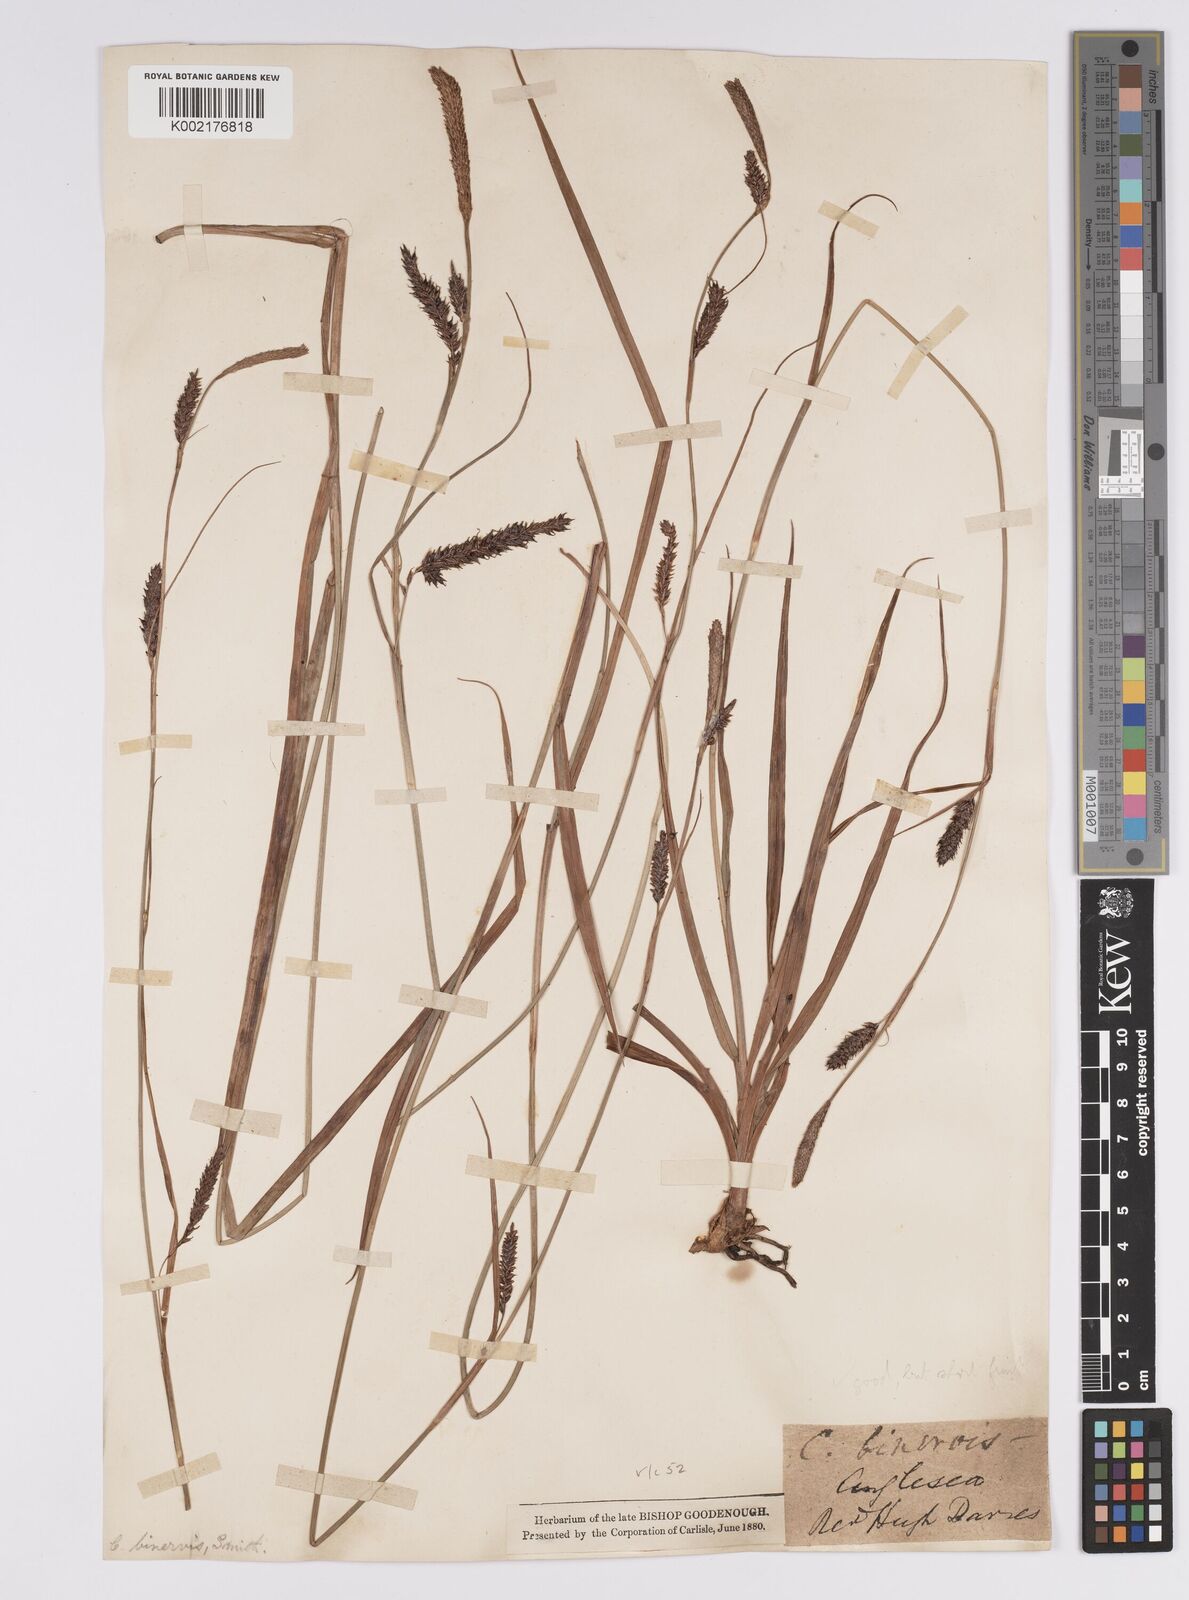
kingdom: Plantae
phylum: Tracheophyta
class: Liliopsida
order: Poales
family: Cyperaceae
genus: Carex
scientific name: Carex binervis
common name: Green-ribbed sedge
